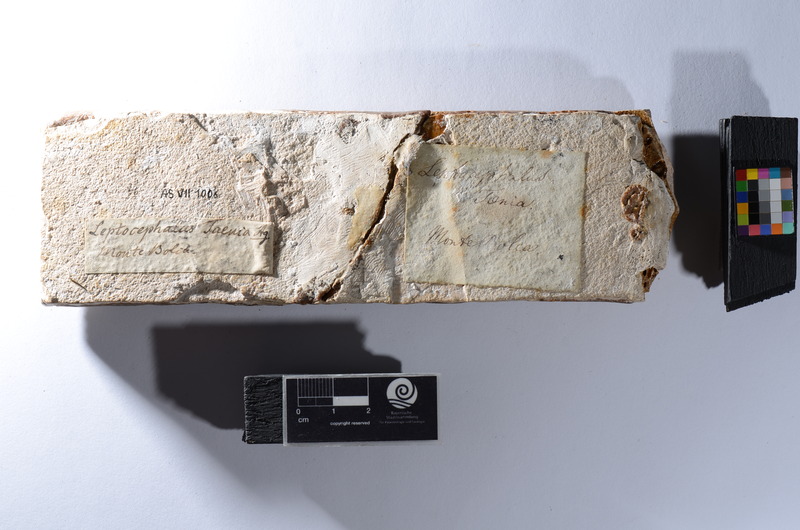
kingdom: Animalia
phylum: Chordata
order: Anguilliformes
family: Congridae
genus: Ariosoma
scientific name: Ariosoma balearicum
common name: Bandtooth conger
